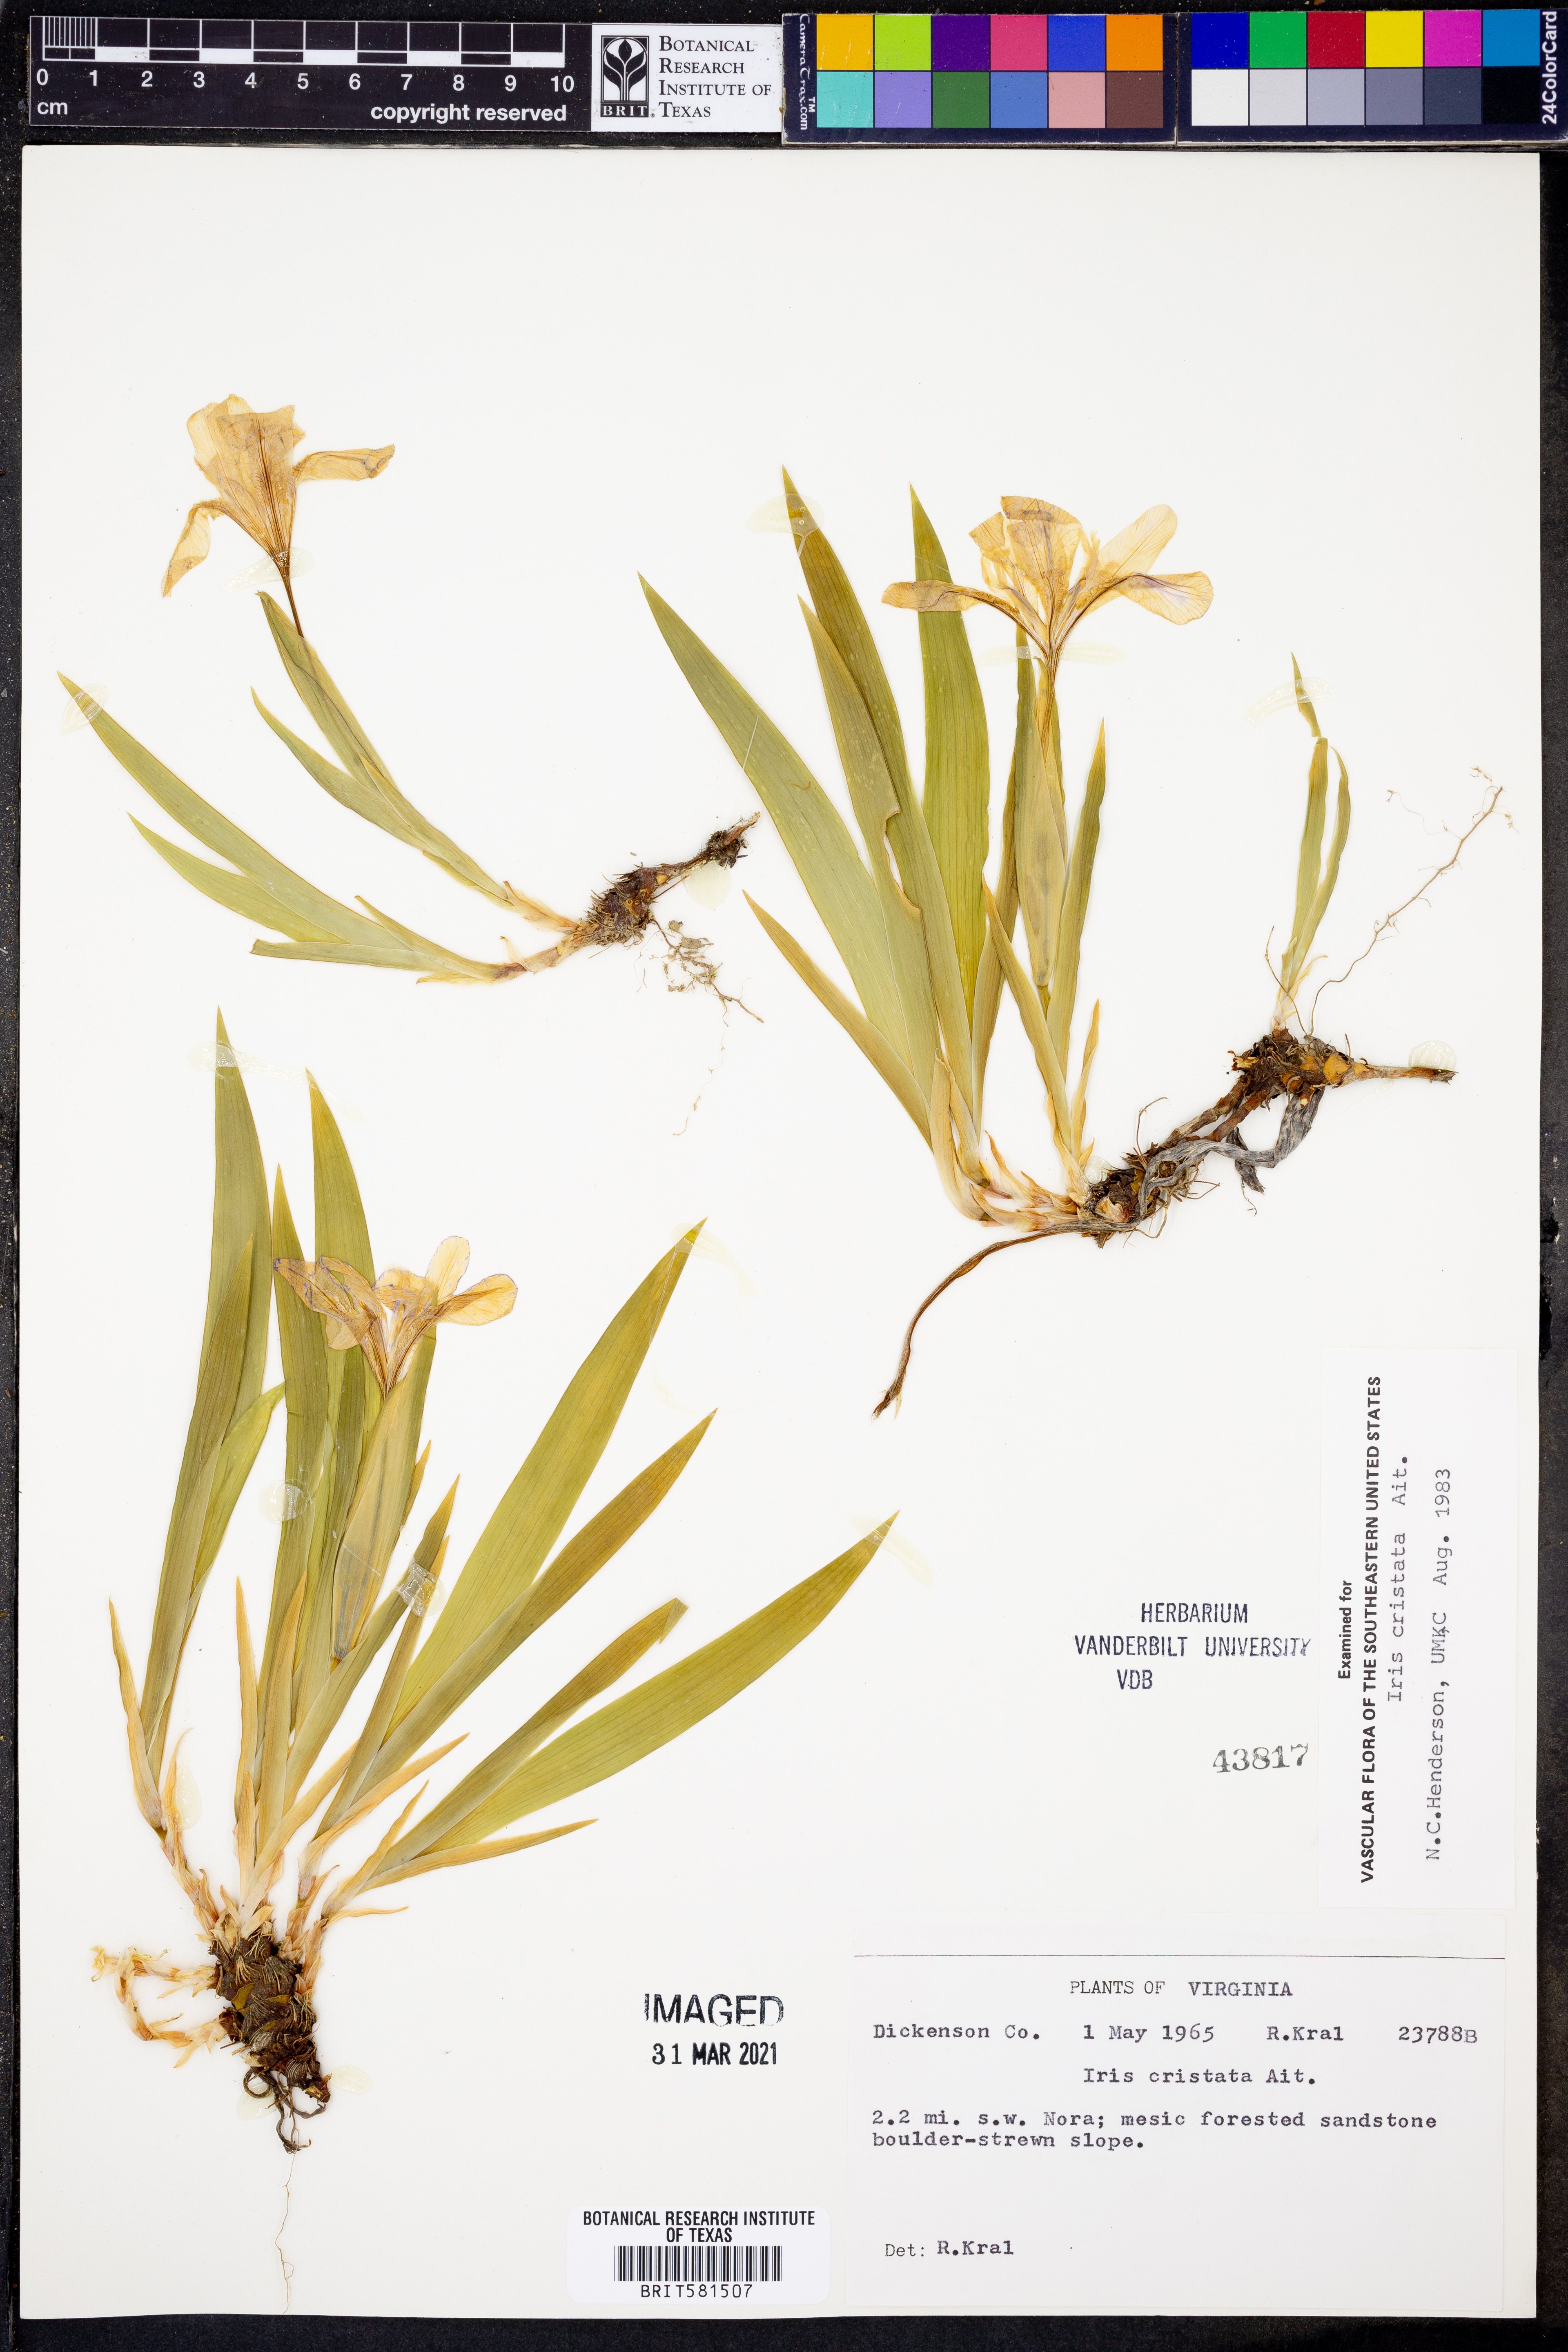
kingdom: Plantae
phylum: Tracheophyta
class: Liliopsida
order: Asparagales
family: Iridaceae
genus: Iris
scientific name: Iris cristata
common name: Crested iris
